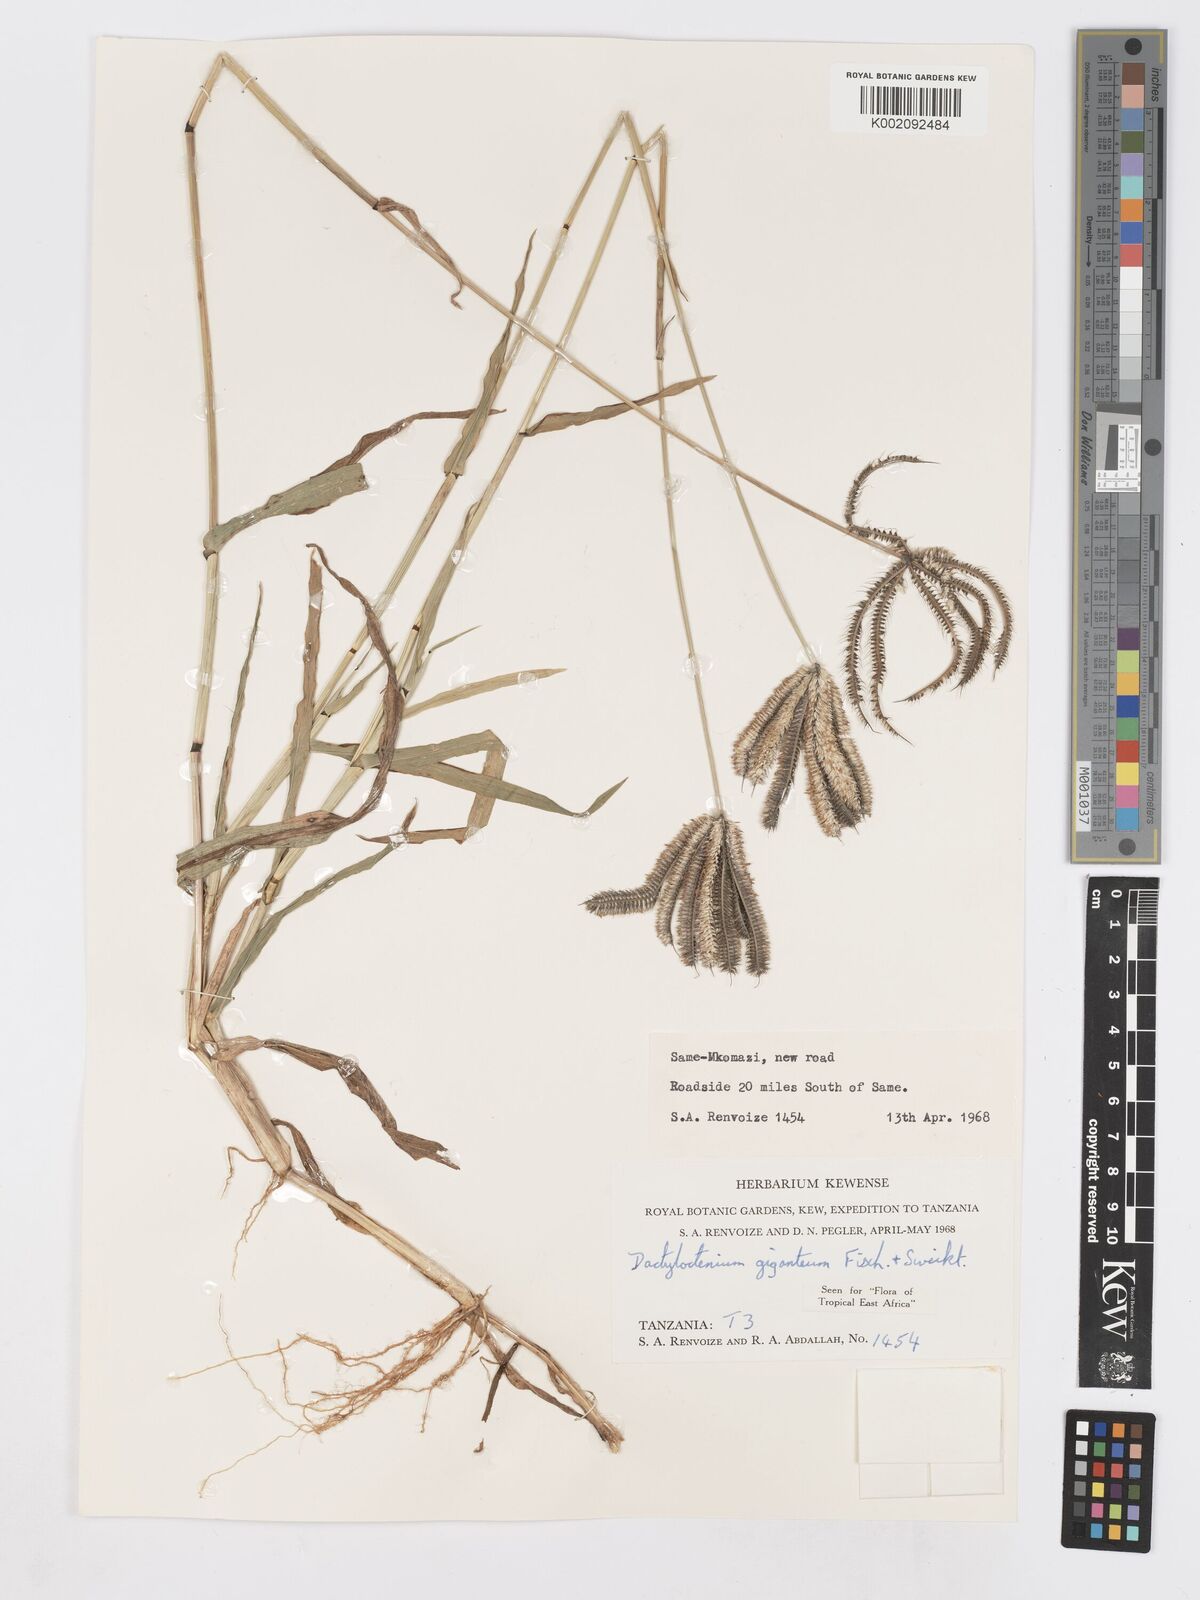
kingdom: Plantae
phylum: Tracheophyta
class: Liliopsida
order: Poales
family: Poaceae
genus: Dactyloctenium
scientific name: Dactyloctenium giganteum
